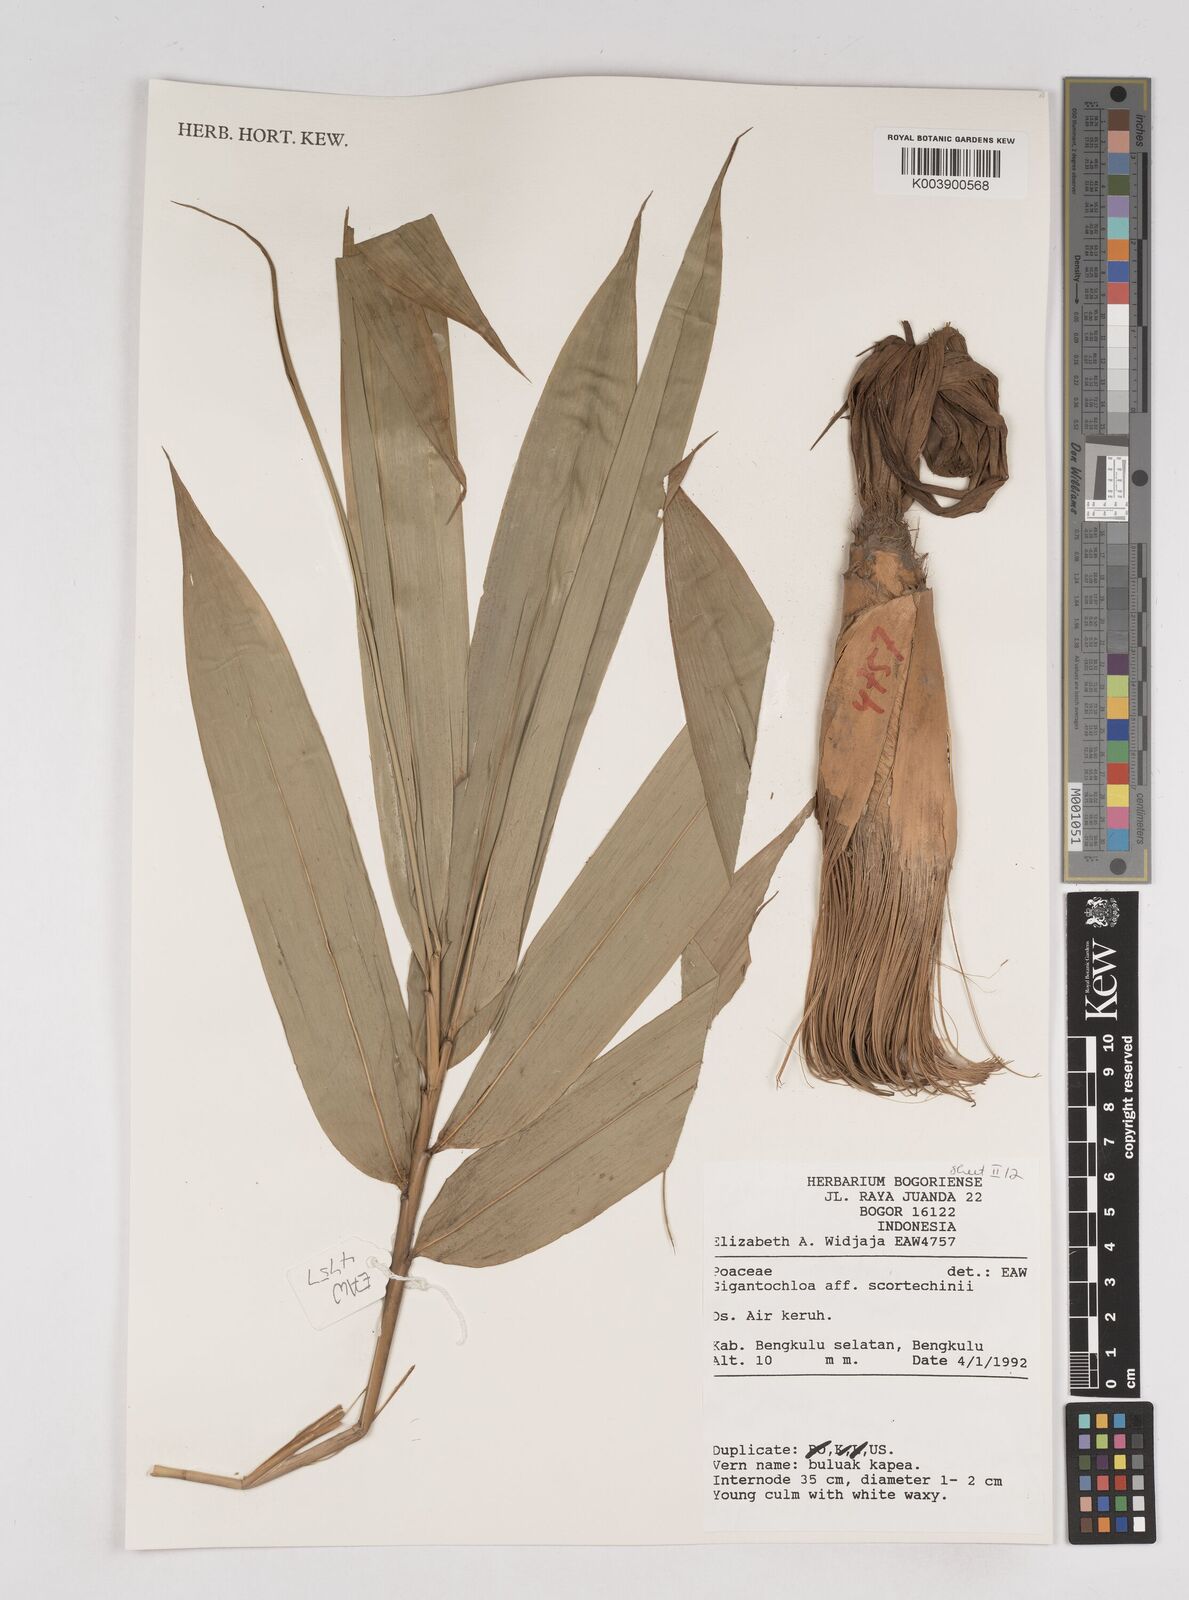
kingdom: Plantae
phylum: Tracheophyta
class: Liliopsida
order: Poales
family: Poaceae
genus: Gigantochloa
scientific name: Gigantochloa scortechinii
